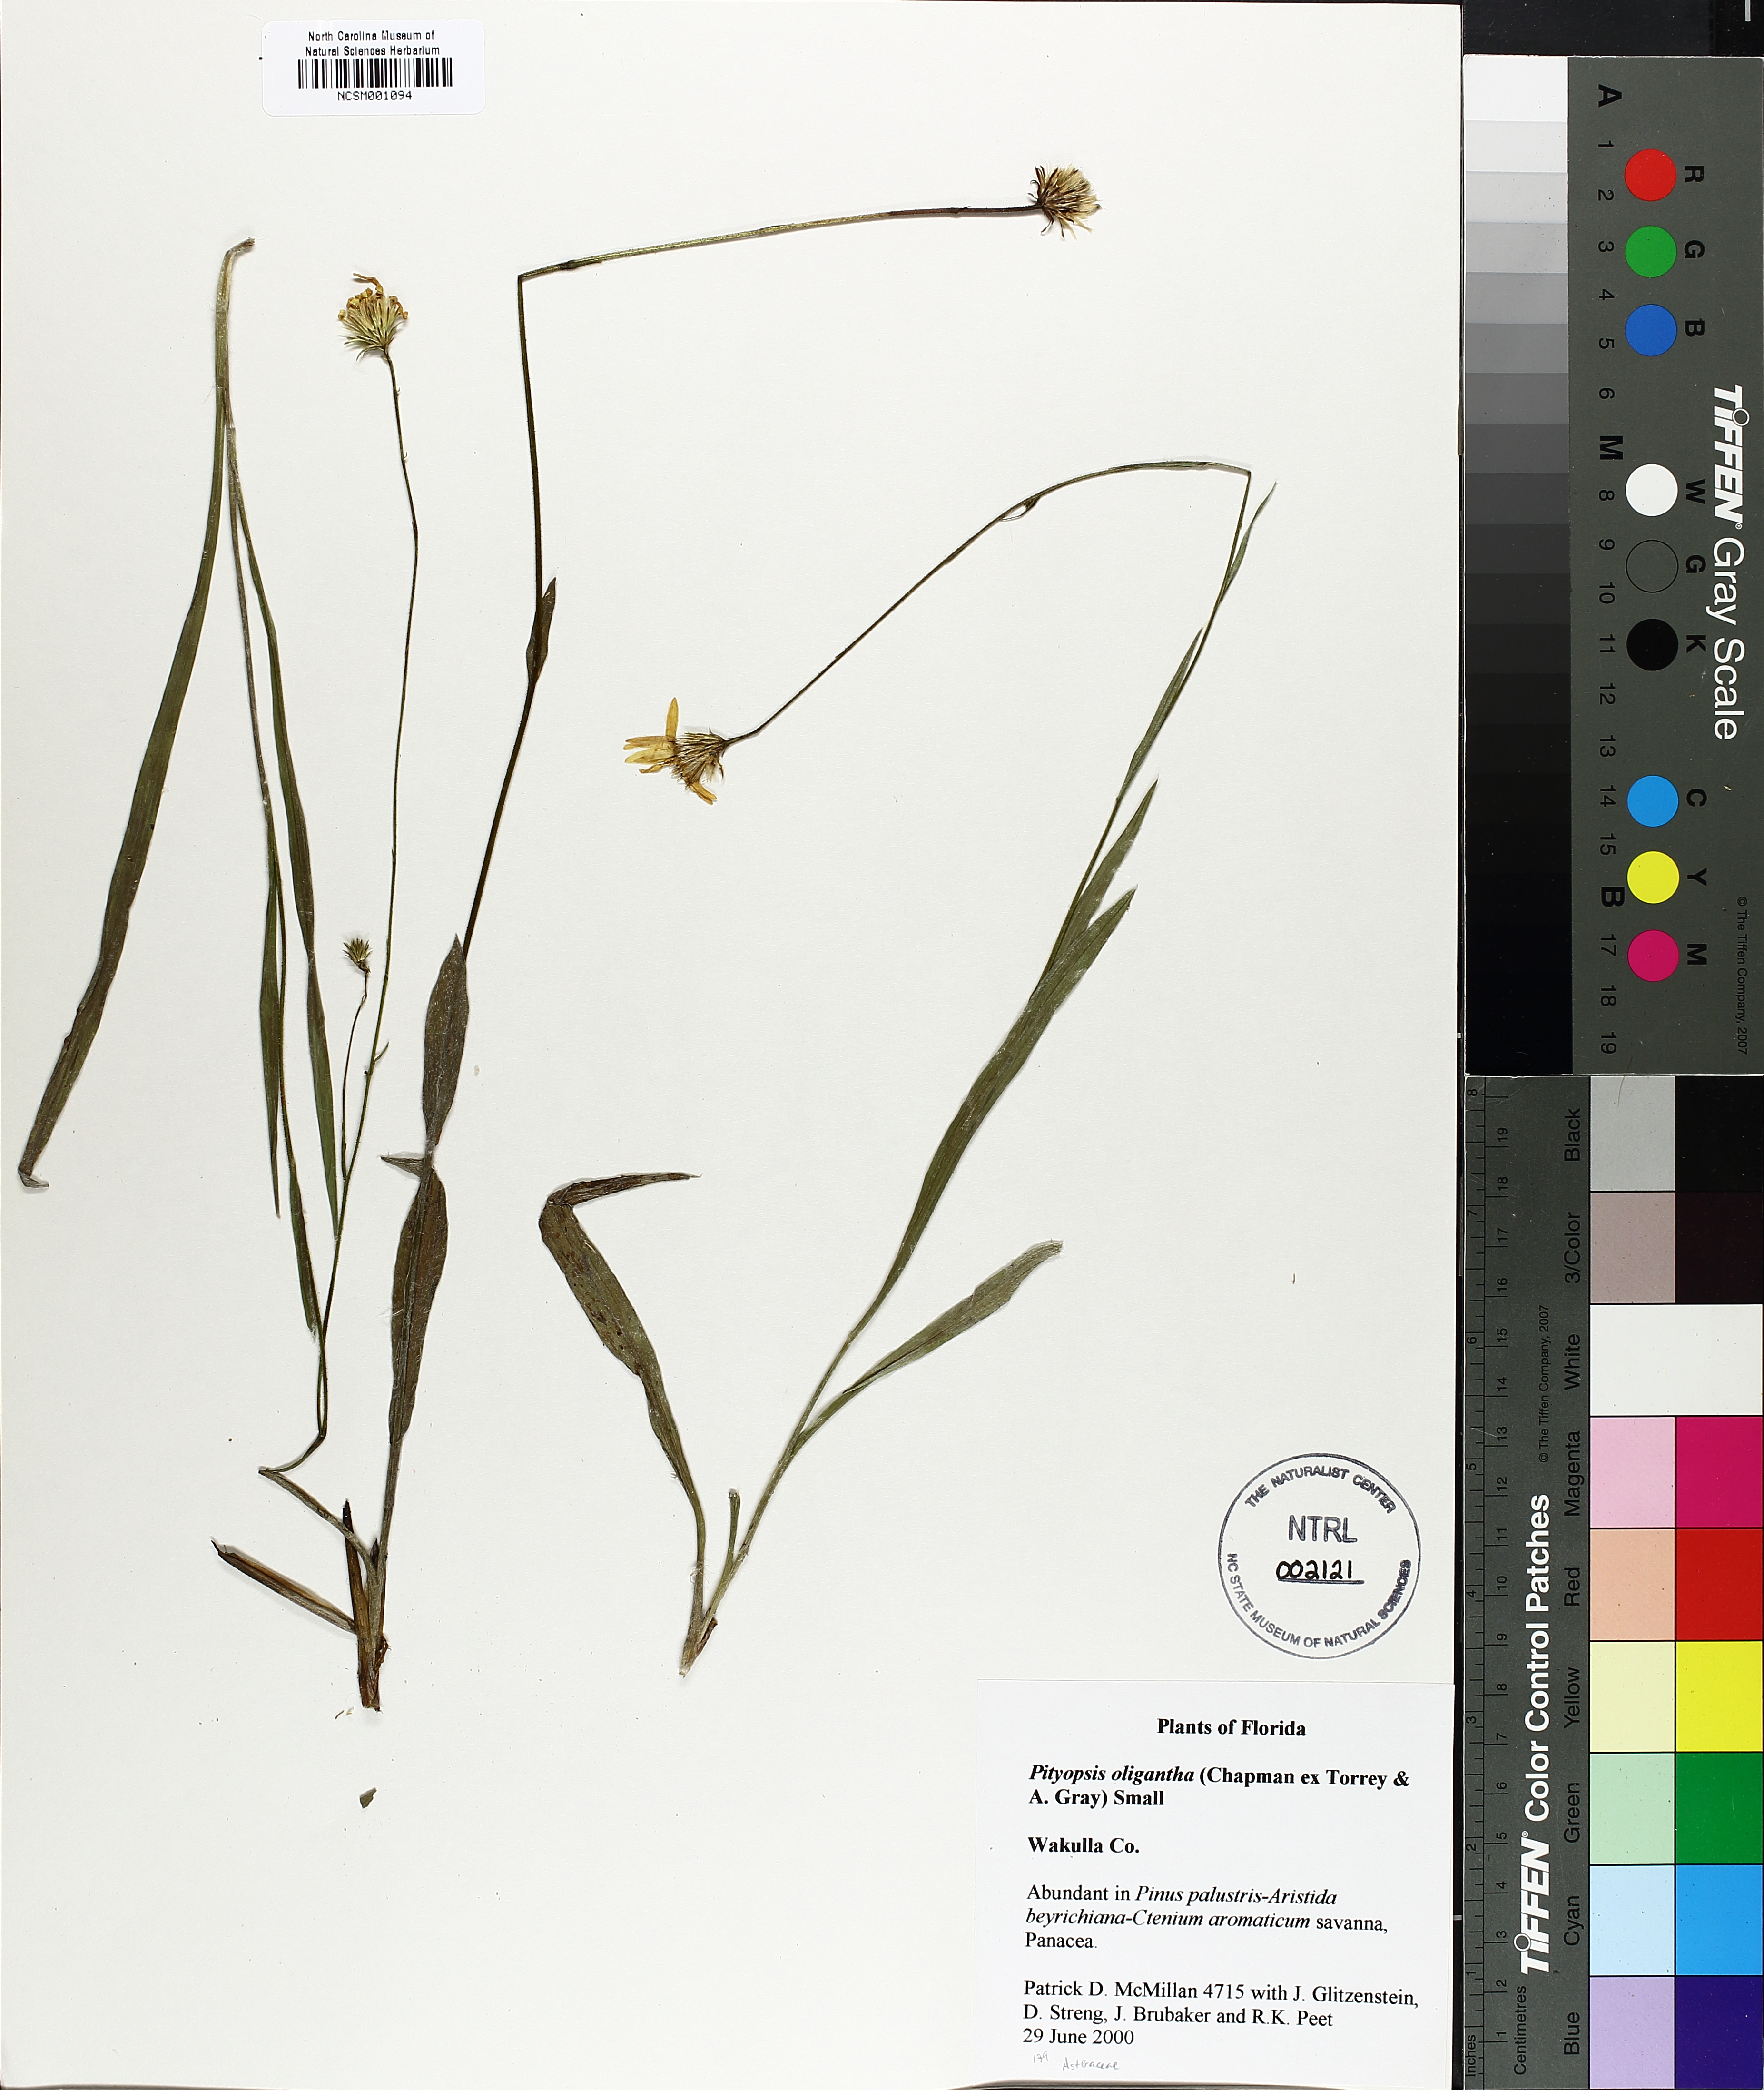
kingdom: Plantae
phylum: Tracheophyta
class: Magnoliopsida
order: Asterales
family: Asteraceae
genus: Pityopsis
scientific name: Pityopsis oligantha
